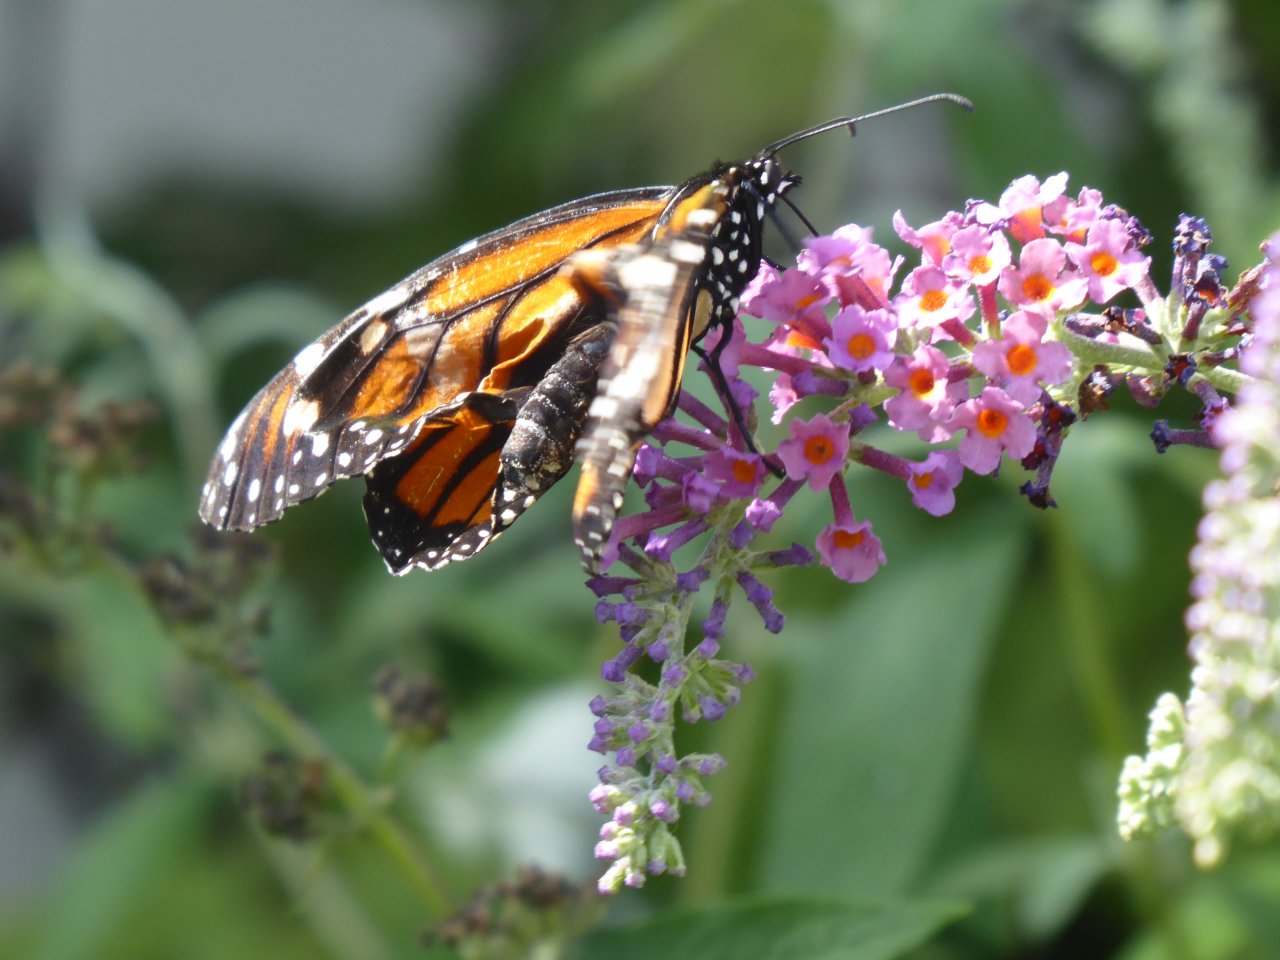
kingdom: Animalia
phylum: Arthropoda
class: Insecta
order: Lepidoptera
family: Nymphalidae
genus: Danaus
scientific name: Danaus plexippus
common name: Monarch
